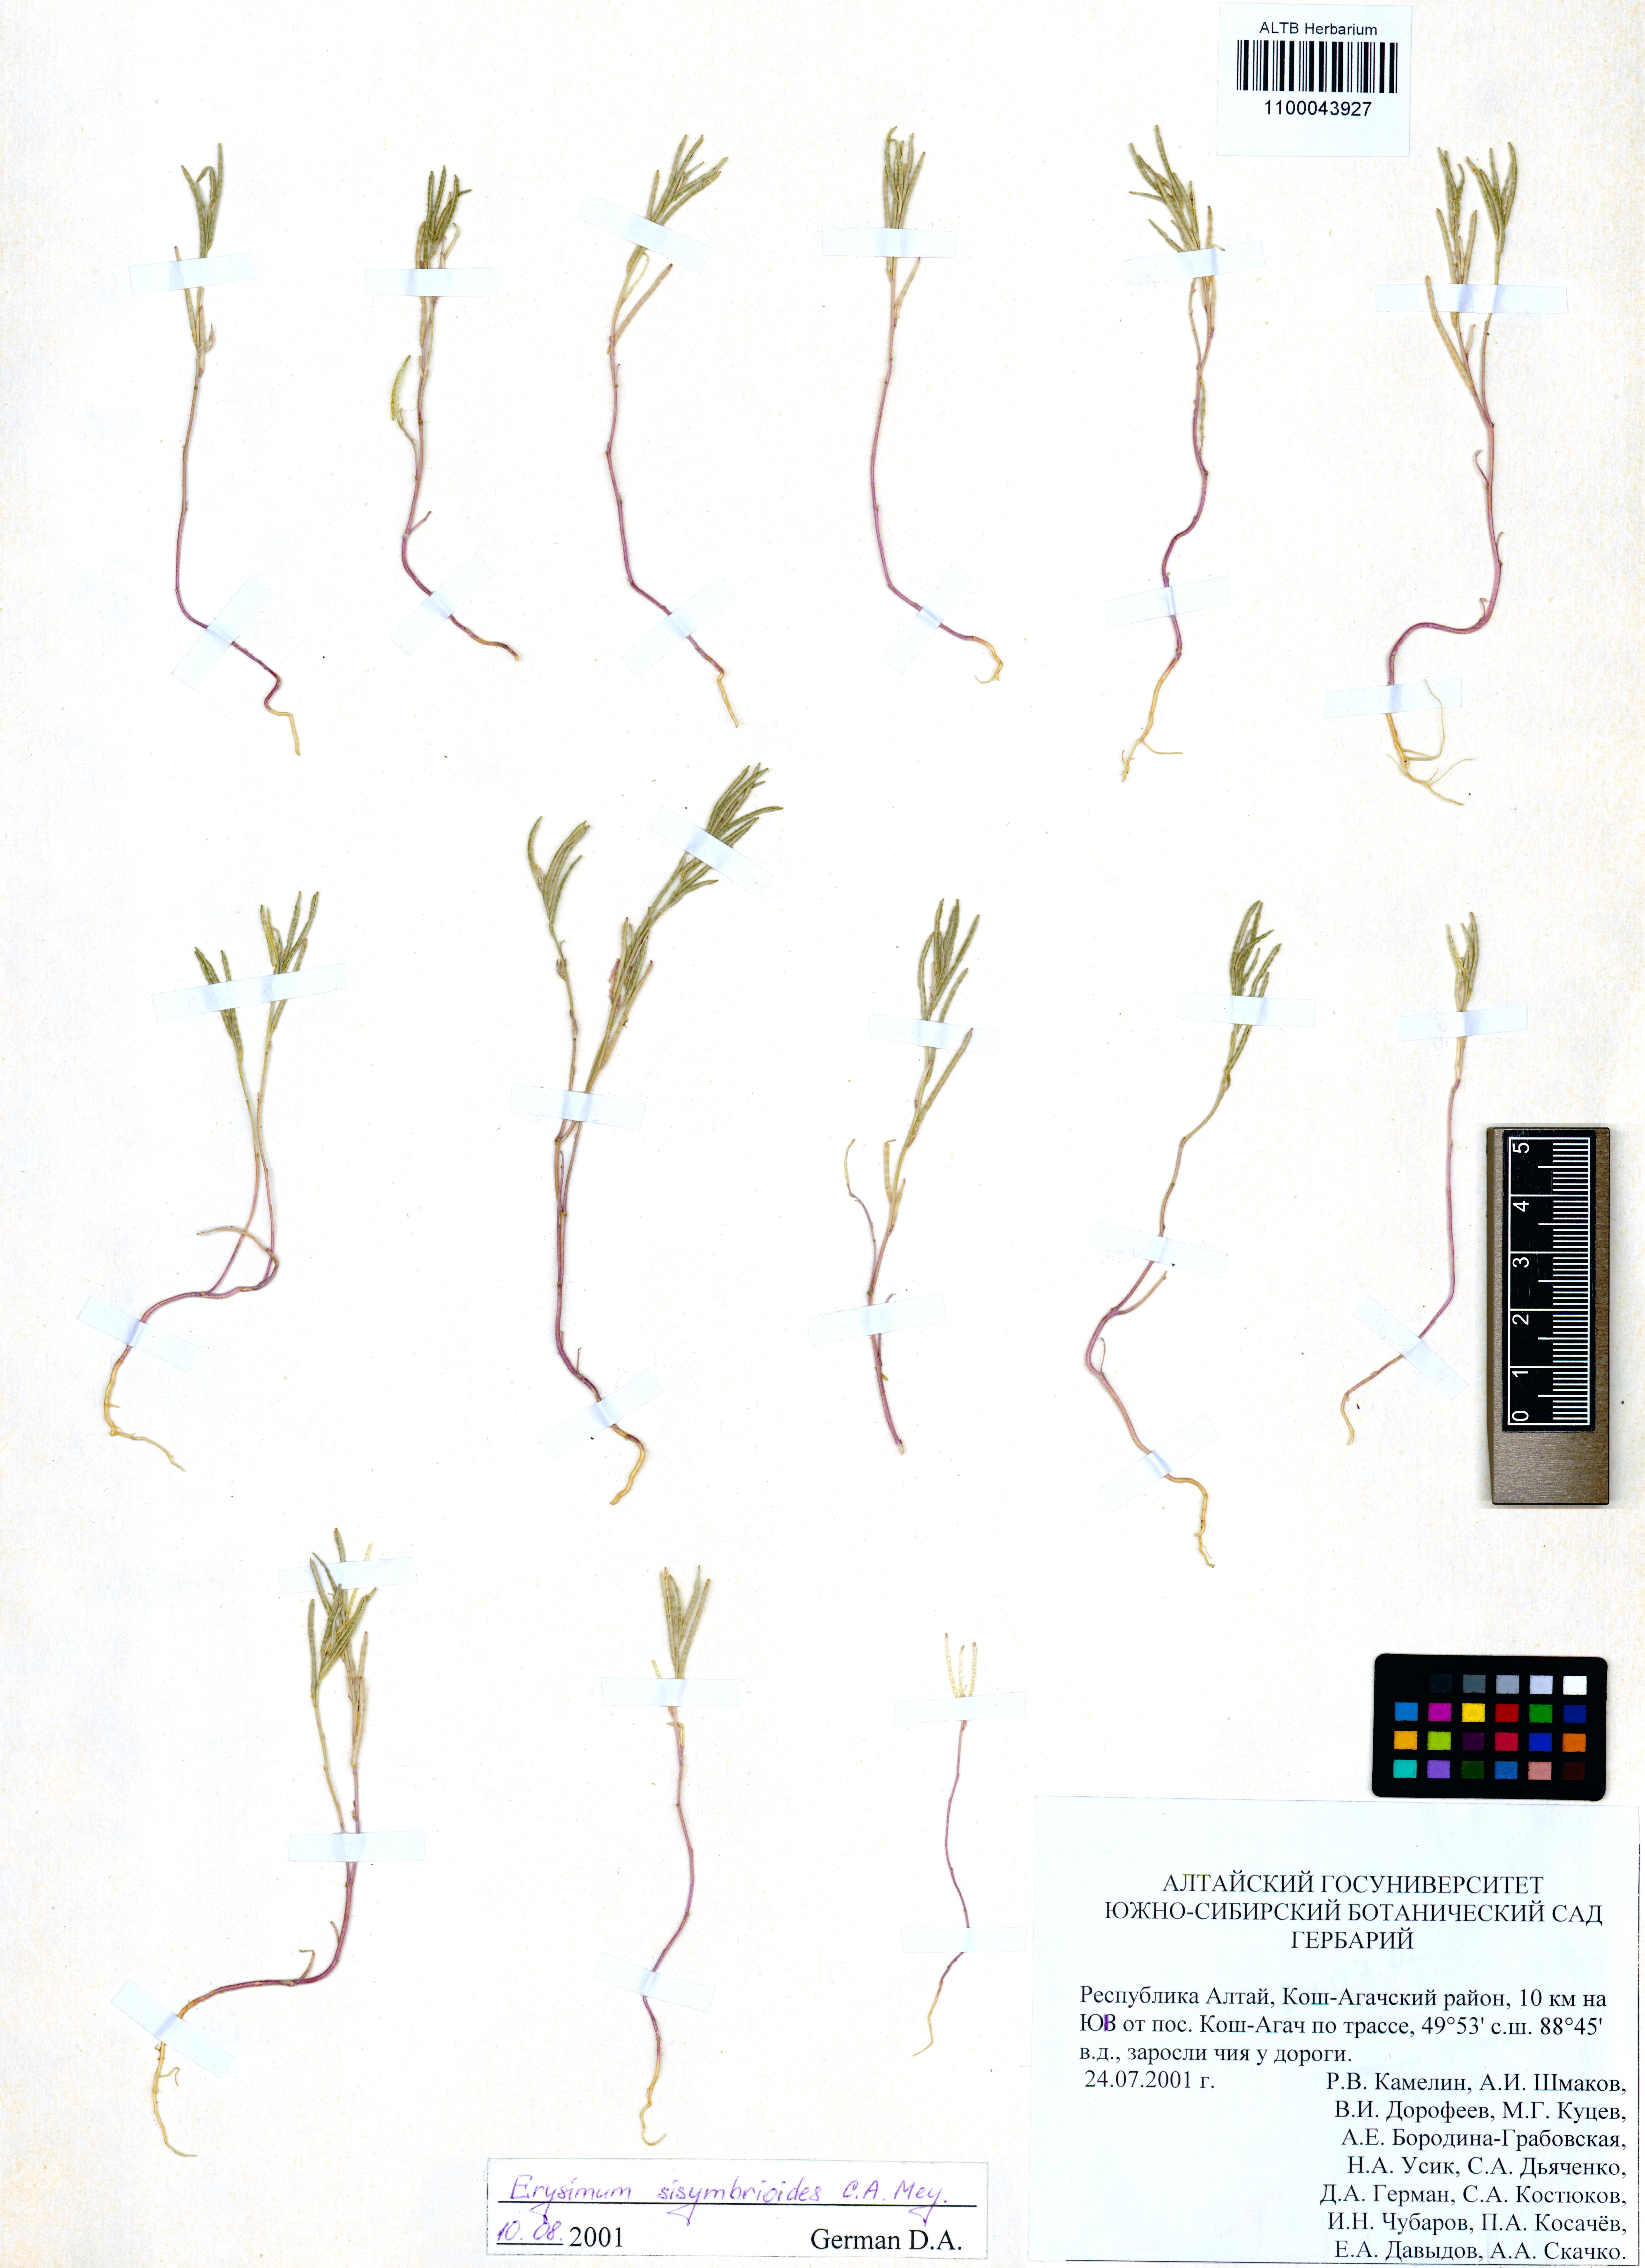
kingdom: Plantae
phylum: Tracheophyta
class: Magnoliopsida
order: Brassicales
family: Brassicaceae
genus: Erysimum
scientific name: Erysimum sisymbrioides
